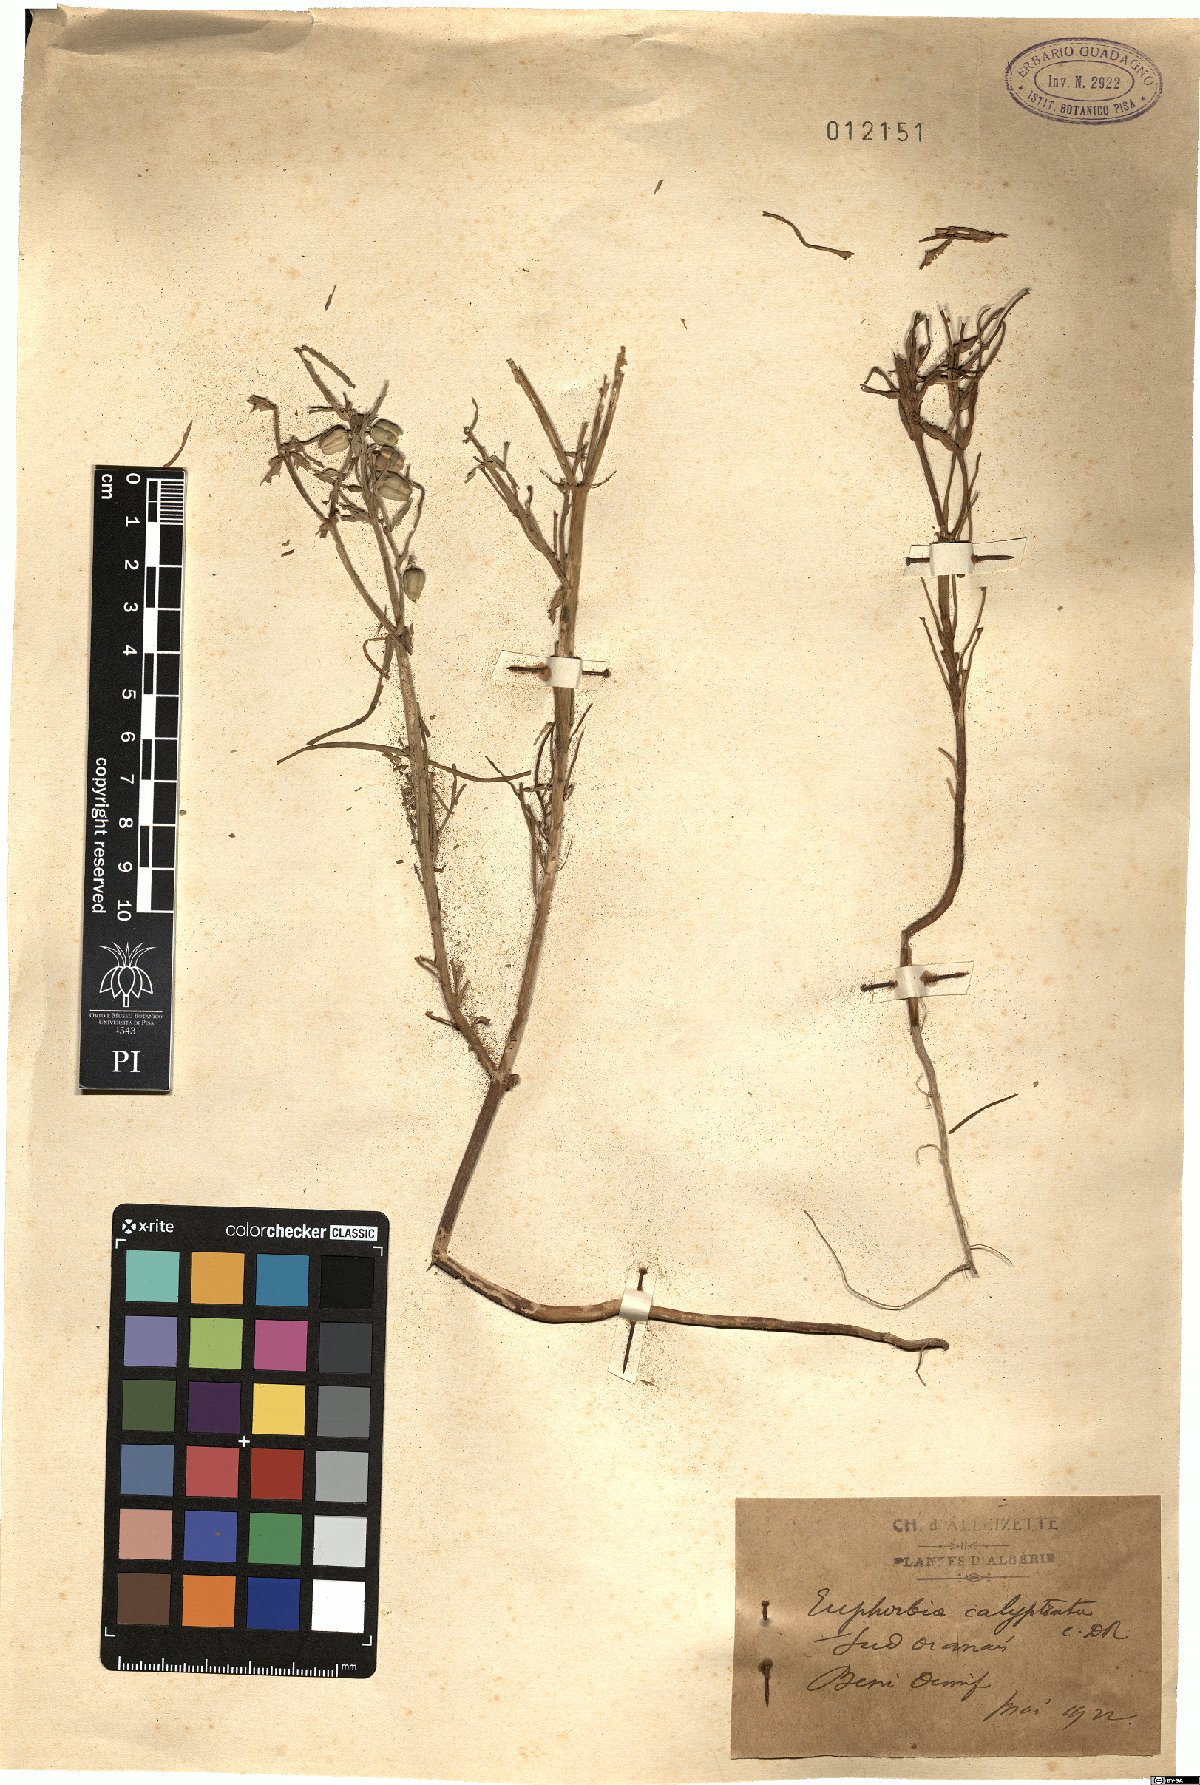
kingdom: Plantae
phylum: Tracheophyta
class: Magnoliopsida
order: Malpighiales
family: Euphorbiaceae
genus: Euphorbia
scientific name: Euphorbia calyptrata
